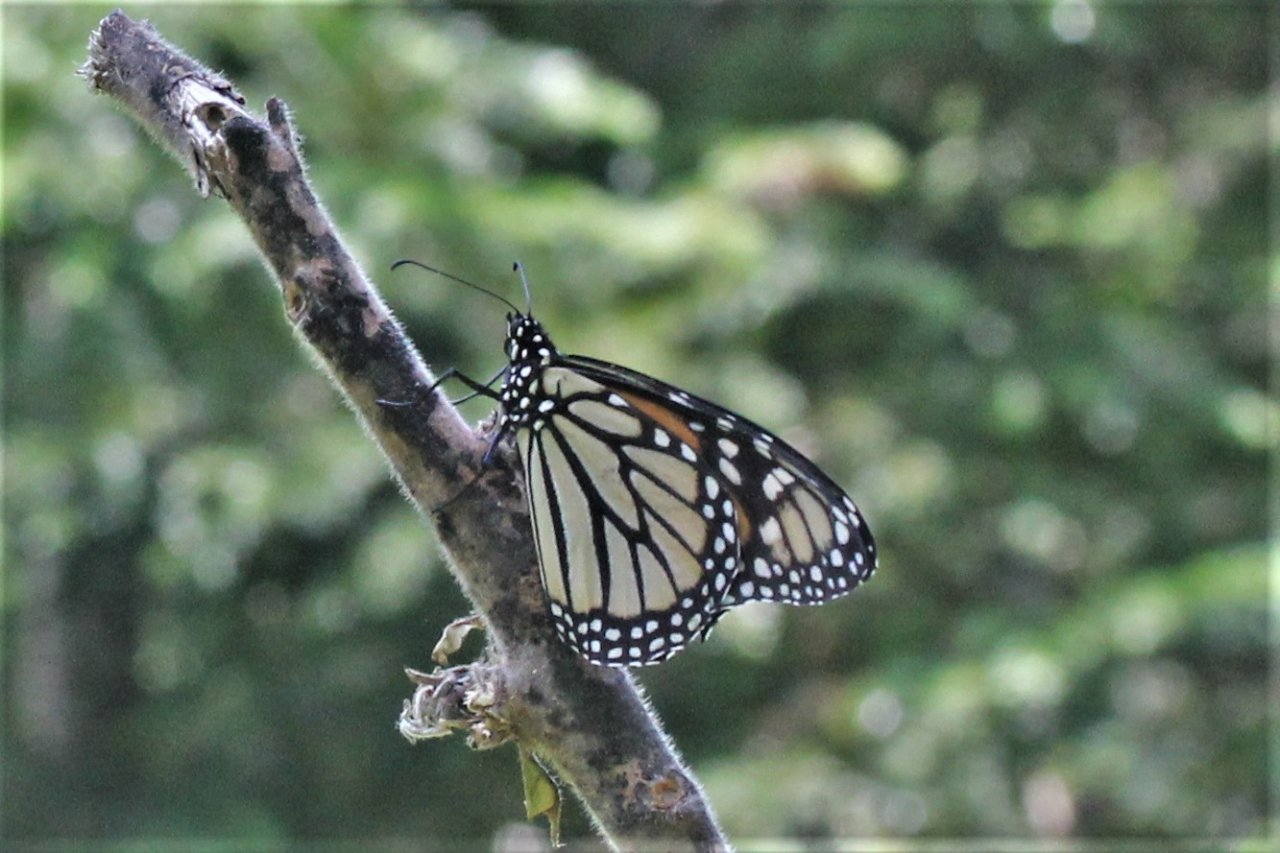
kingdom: Animalia
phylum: Arthropoda
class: Insecta
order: Lepidoptera
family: Nymphalidae
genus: Danaus
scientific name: Danaus plexippus
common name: Monarch
